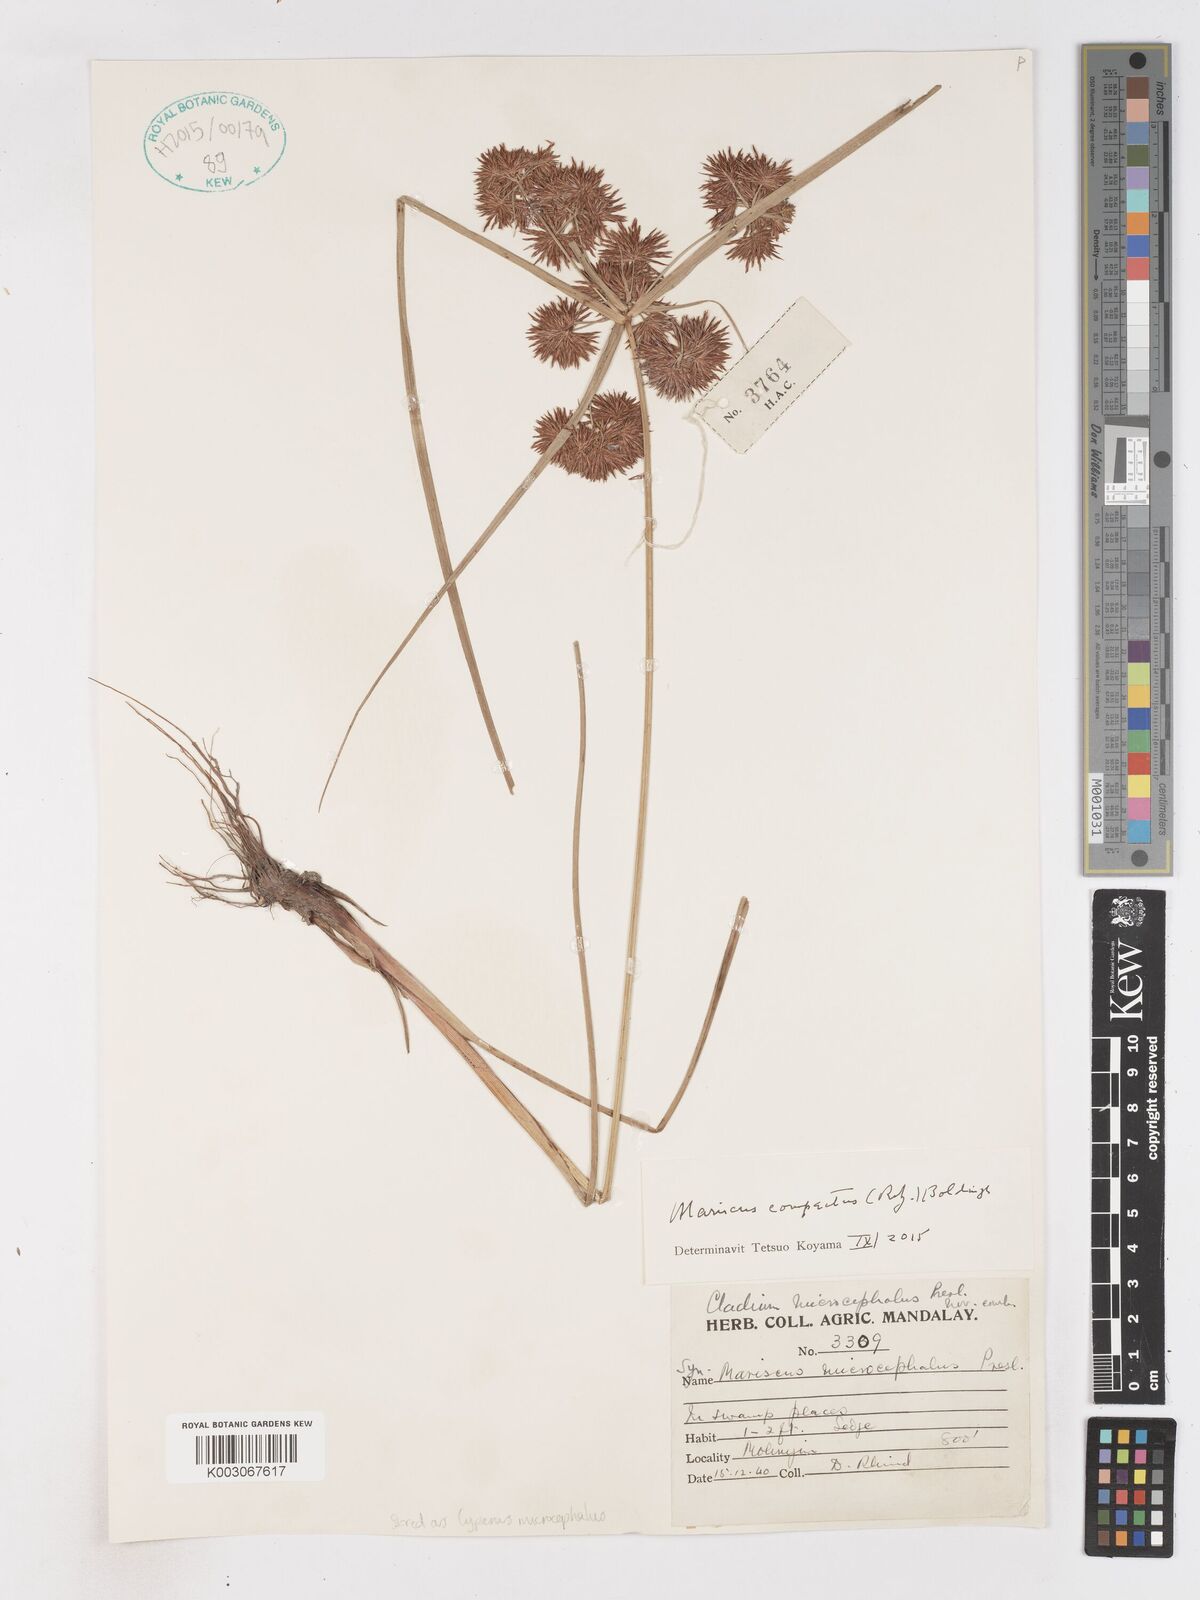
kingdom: Plantae
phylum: Tracheophyta
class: Liliopsida
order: Poales
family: Cyperaceae
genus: Cyperus
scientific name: Cyperus
